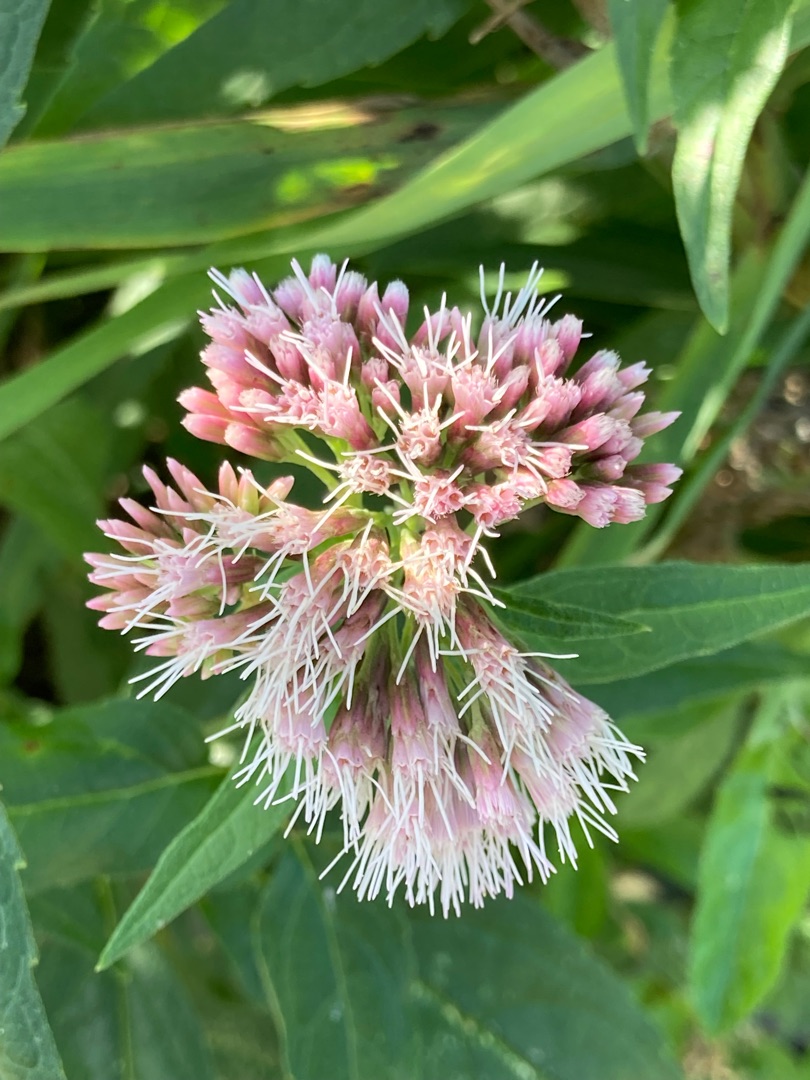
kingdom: Plantae
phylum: Tracheophyta
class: Magnoliopsida
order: Asterales
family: Asteraceae
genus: Eupatorium
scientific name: Eupatorium cannabinum
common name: Hjortetrøst
